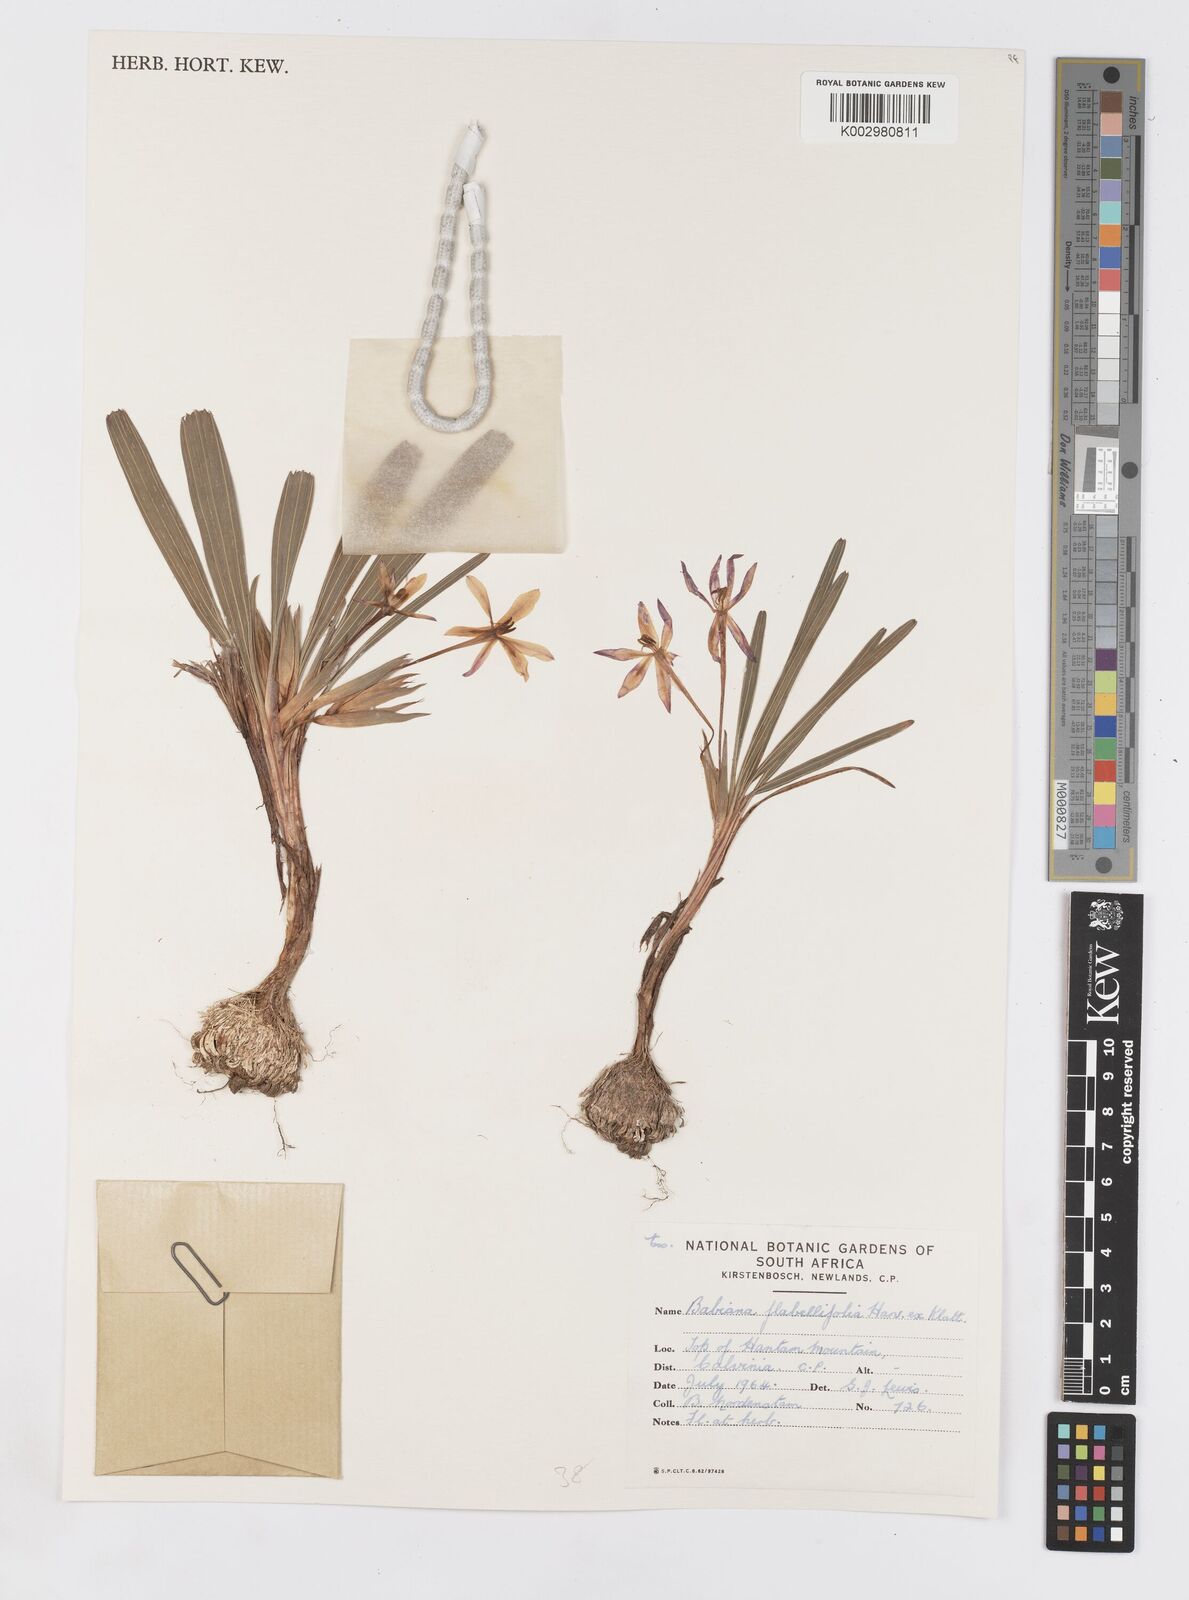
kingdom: Plantae
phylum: Tracheophyta
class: Liliopsida
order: Asparagales
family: Iridaceae
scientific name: Iridaceae
